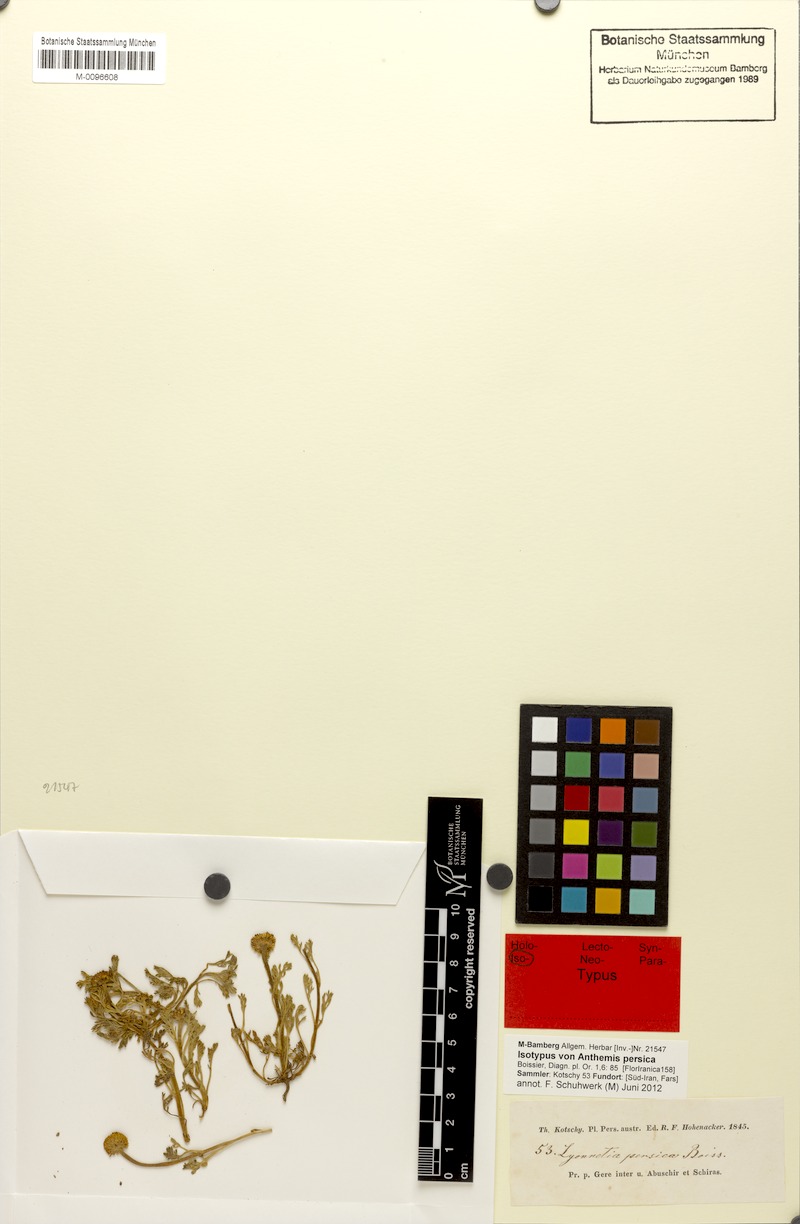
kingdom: Plantae
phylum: Tracheophyta
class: Magnoliopsida
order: Asterales
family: Asteraceae
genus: Anthemis
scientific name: Anthemis persica
